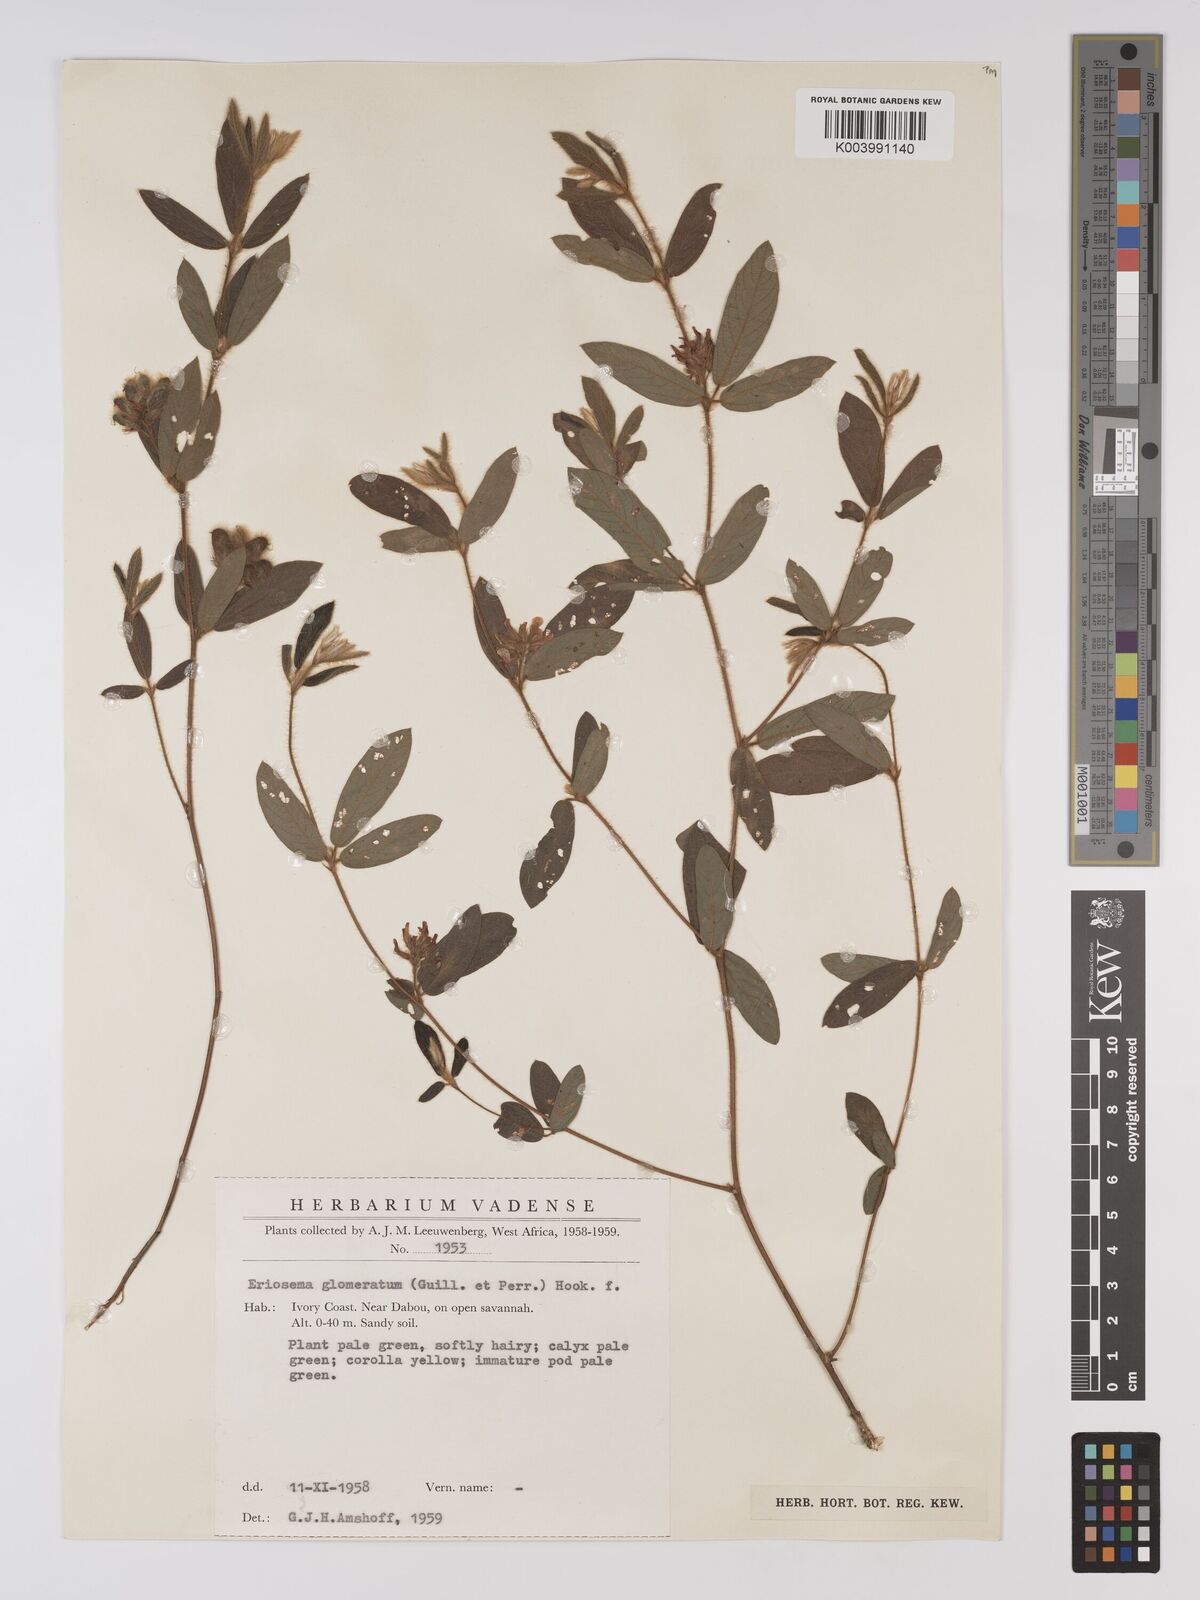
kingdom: Plantae
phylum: Tracheophyta
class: Magnoliopsida
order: Fabales
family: Fabaceae
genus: Eriosema
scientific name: Eriosema glomeratum
